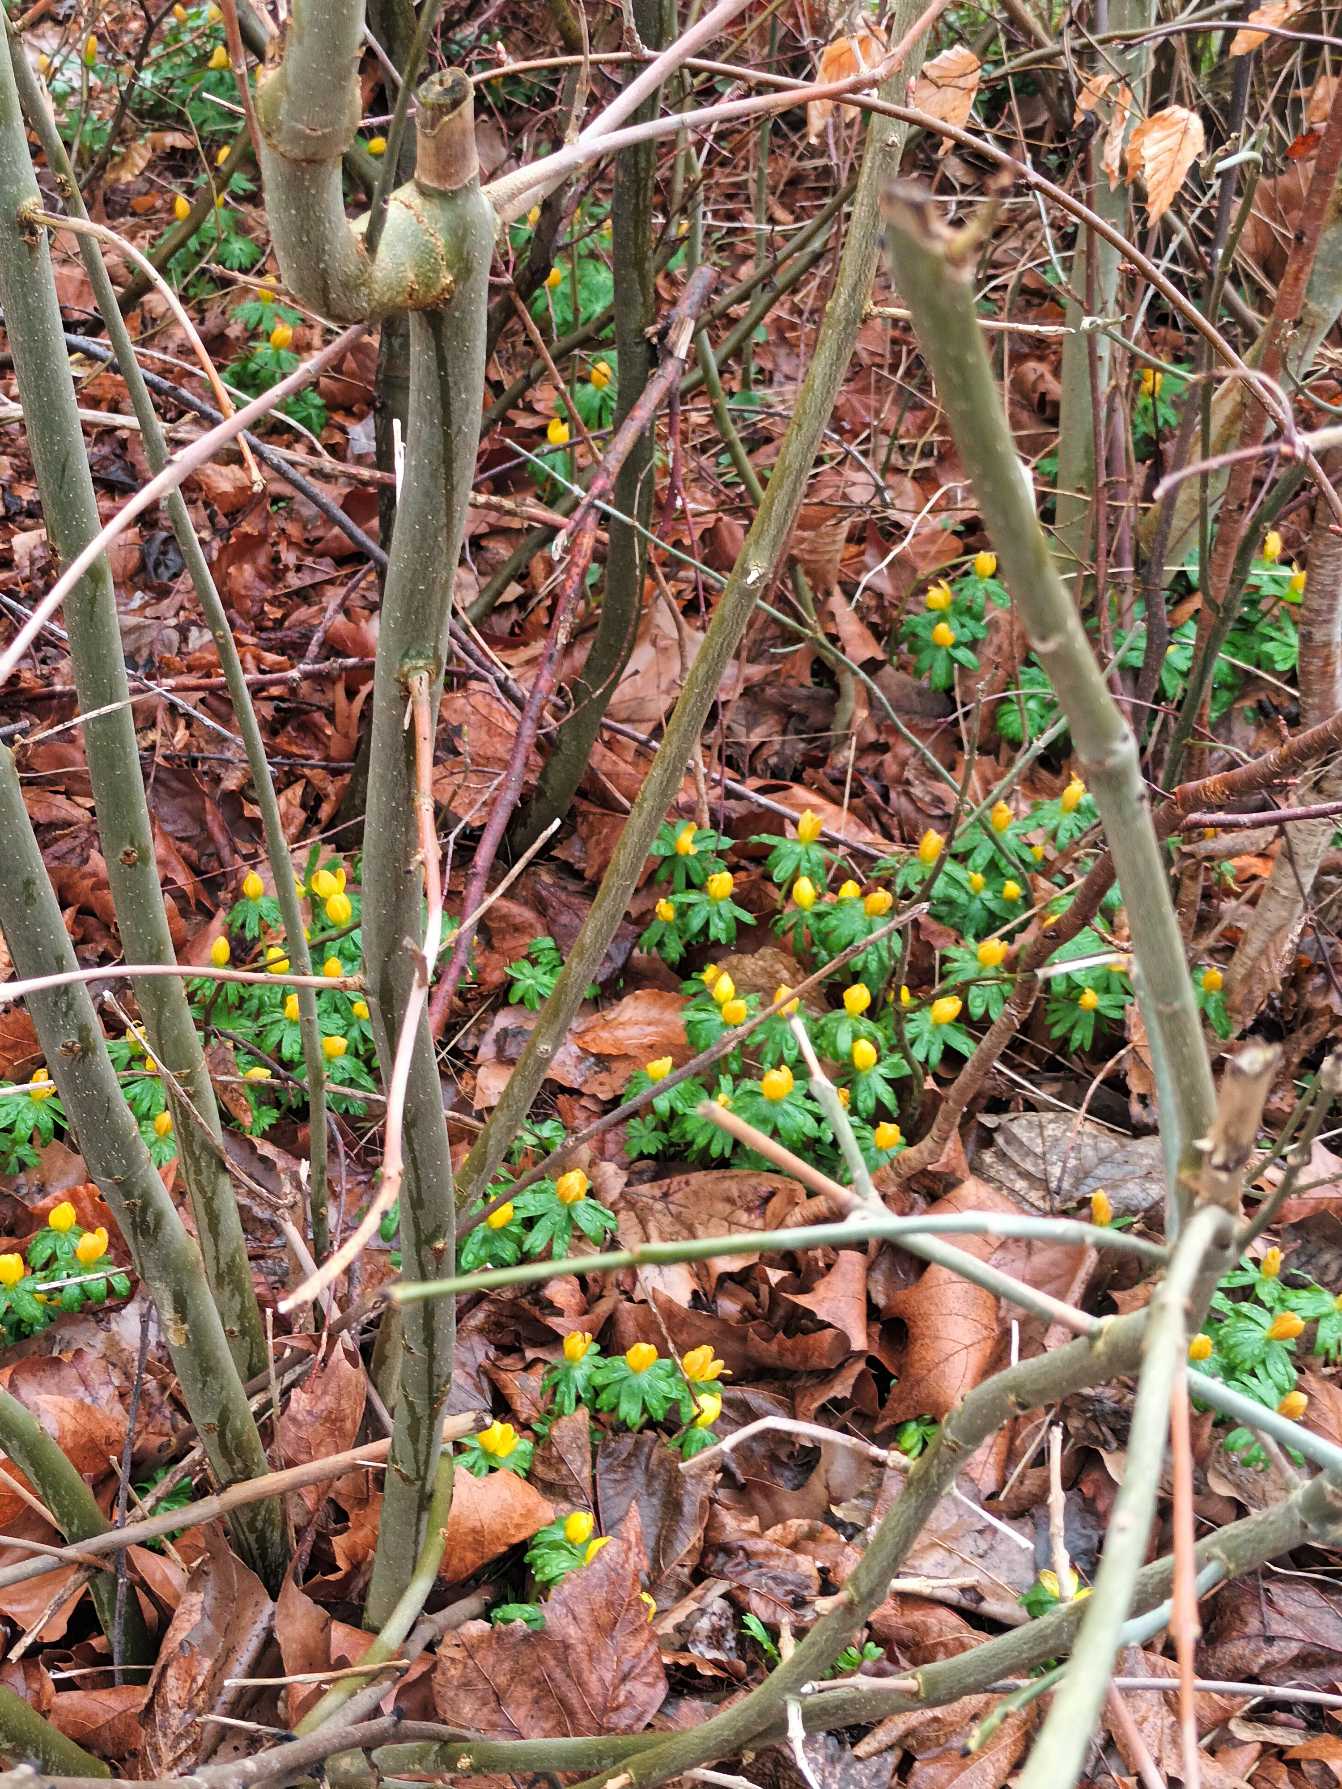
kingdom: Plantae
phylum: Tracheophyta
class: Magnoliopsida
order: Ranunculales
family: Ranunculaceae
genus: Eranthis
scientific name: Eranthis hyemalis
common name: Erantis
